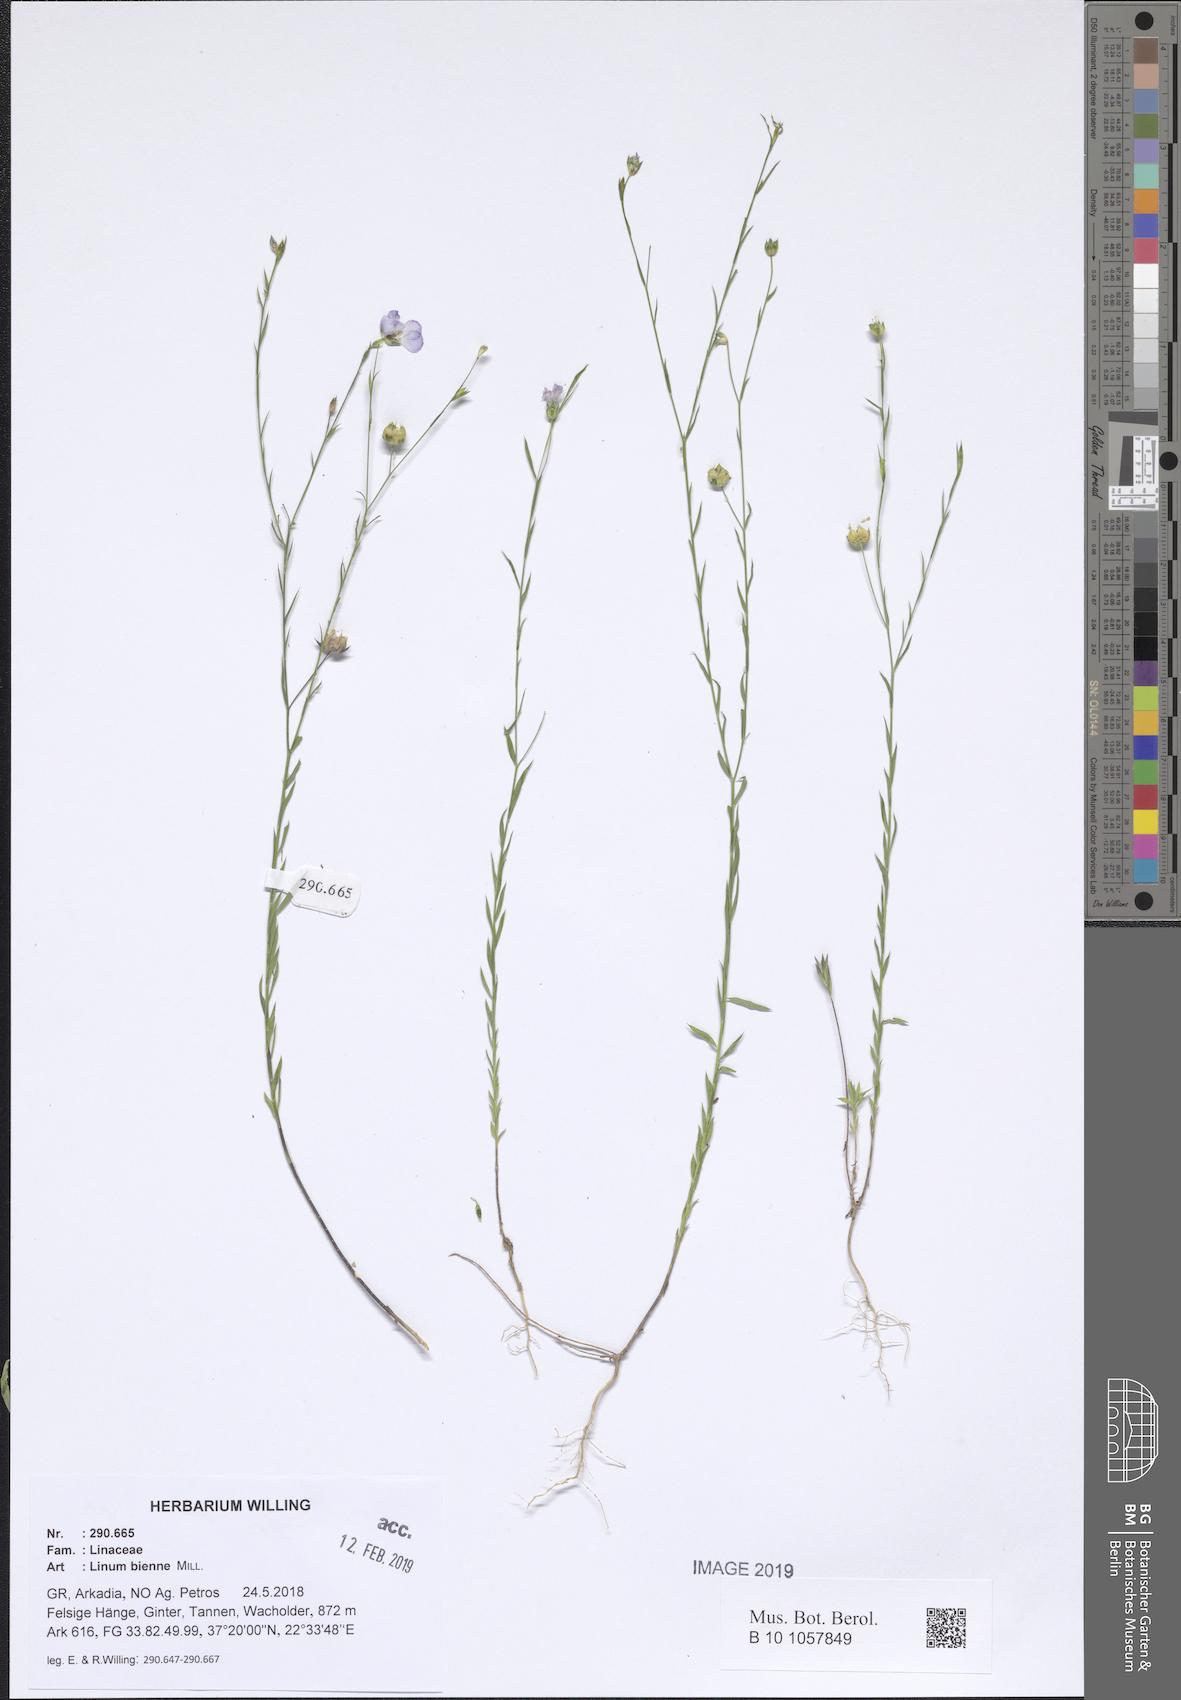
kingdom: Plantae
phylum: Tracheophyta
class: Magnoliopsida
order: Malpighiales
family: Linaceae
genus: Linum
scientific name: Linum bienne
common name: Pale flax
